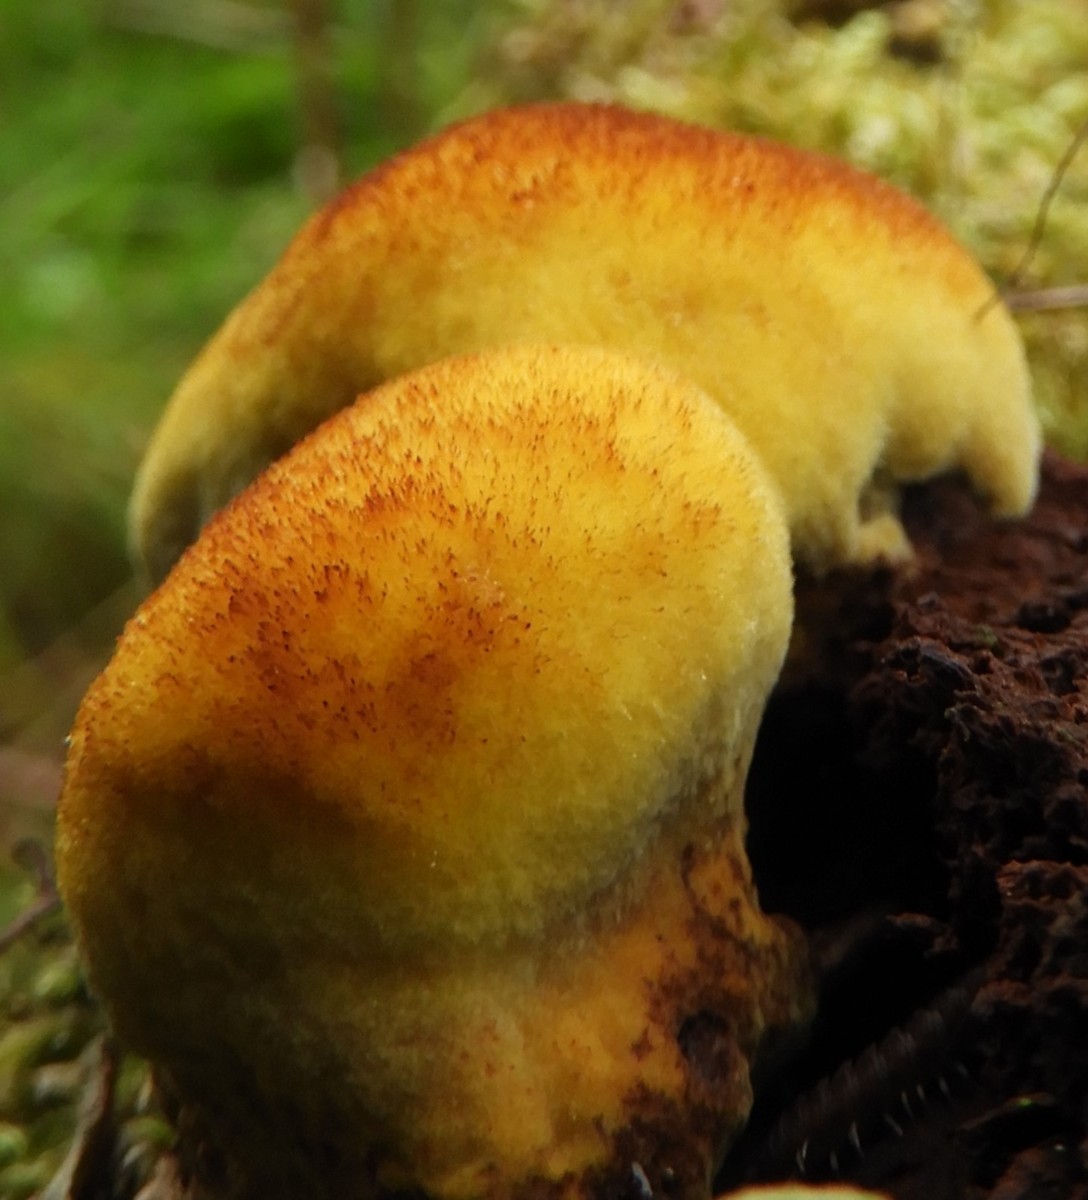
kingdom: Fungi
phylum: Basidiomycota
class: Agaricomycetes
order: Polyporales
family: Laetiporaceae
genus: Phaeolus
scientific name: Phaeolus schweinitzii
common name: brunporesvamp
